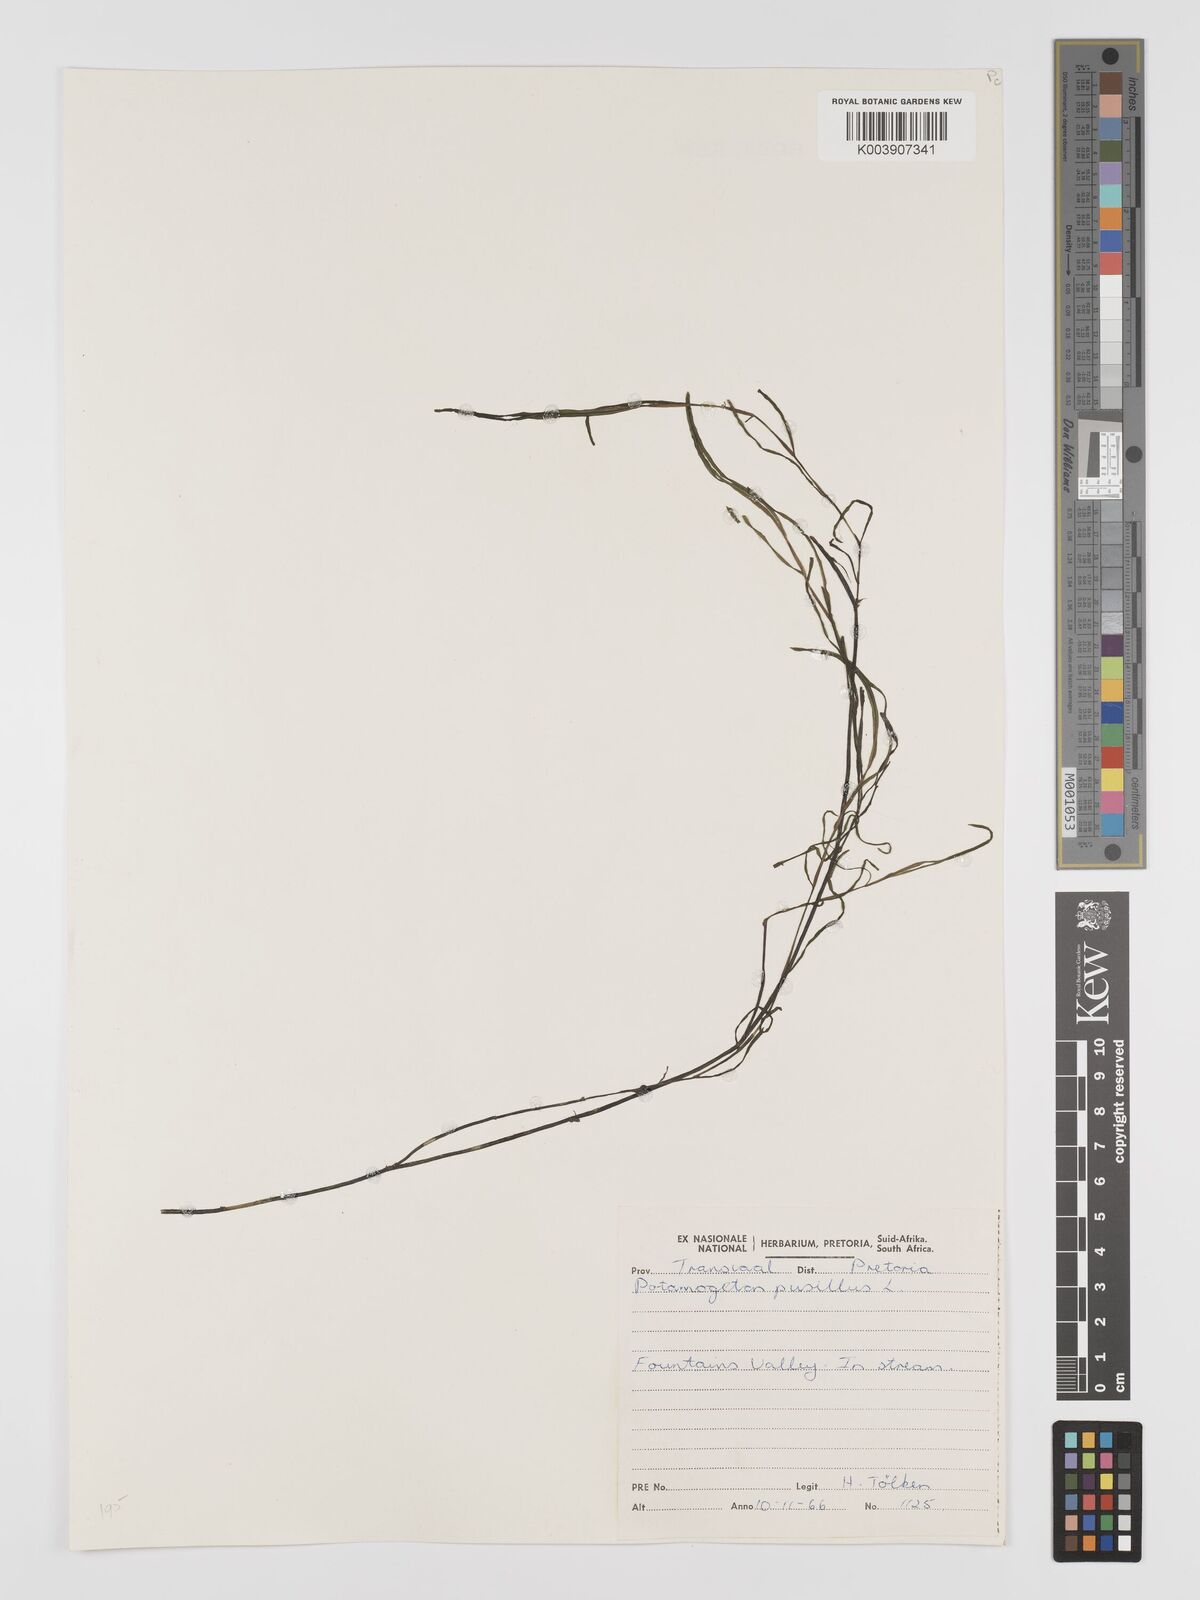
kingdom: Plantae
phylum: Tracheophyta
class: Liliopsida
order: Alismatales
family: Potamogetonaceae
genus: Potamogeton
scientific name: Potamogeton pusillus
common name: Lesser pondweed
